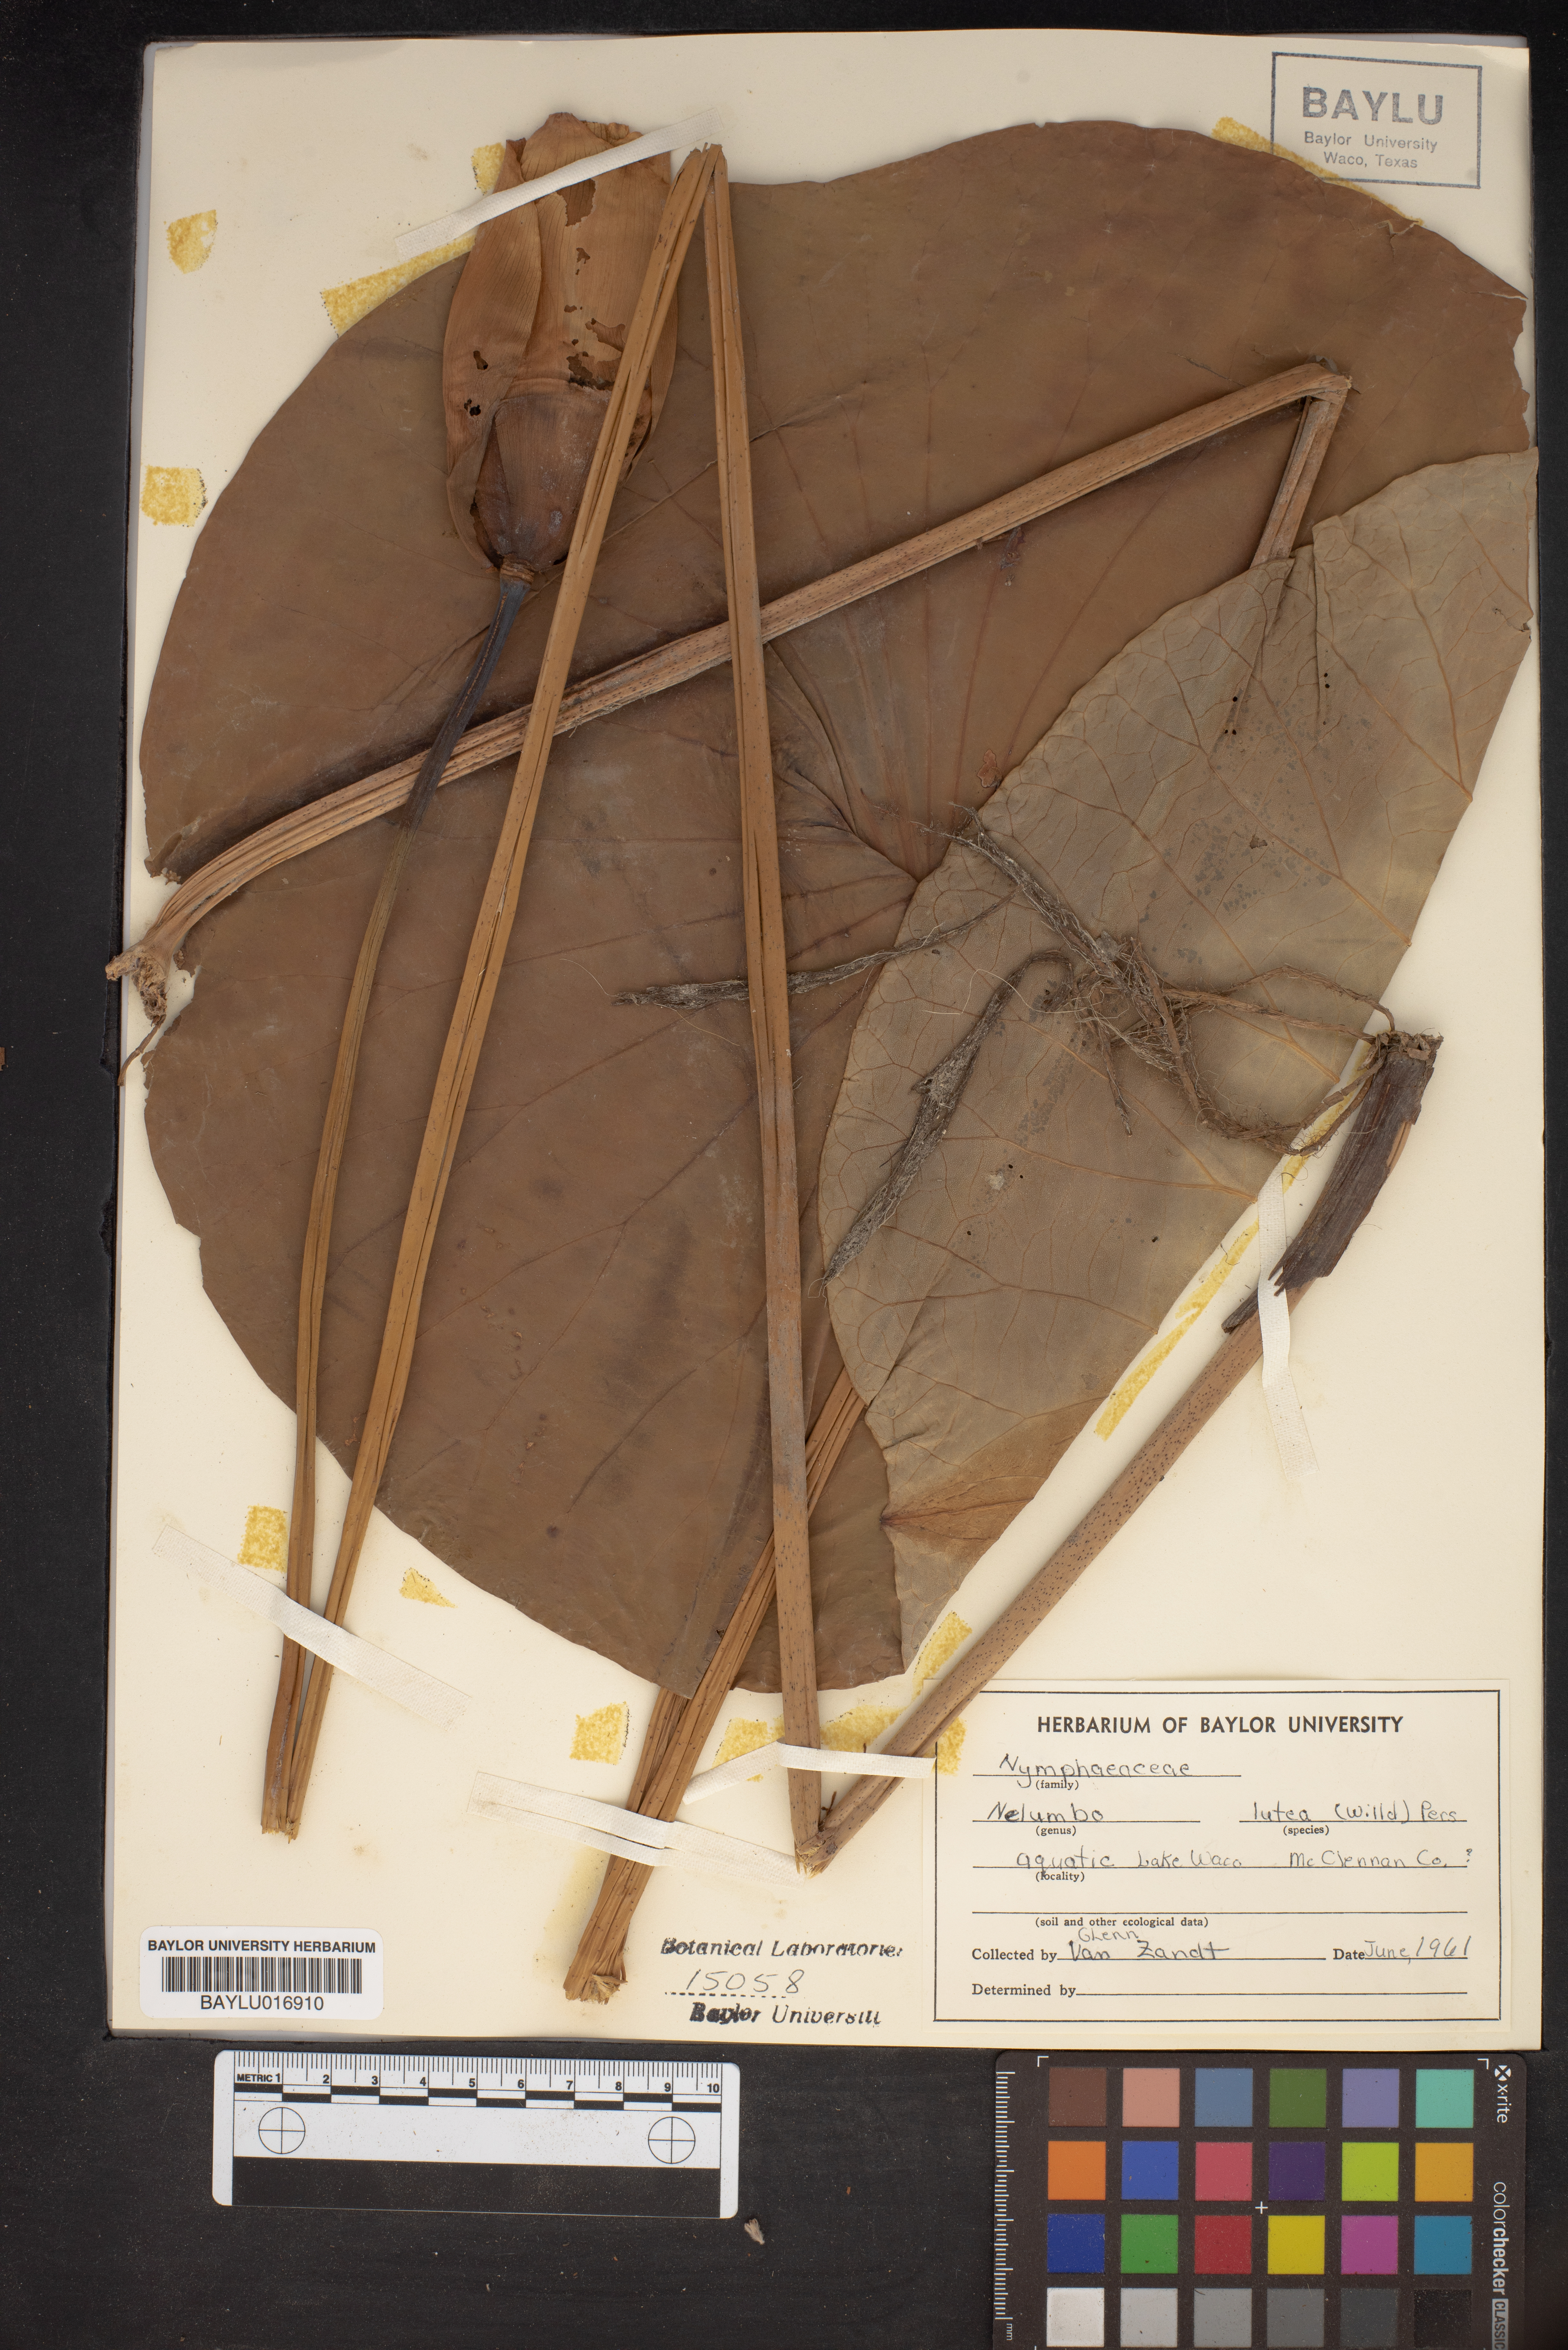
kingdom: Plantae
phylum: Tracheophyta
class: Magnoliopsida
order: Proteales
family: Nelumbonaceae
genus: Nelumbo
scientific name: Nelumbo lutea
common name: American lotus
